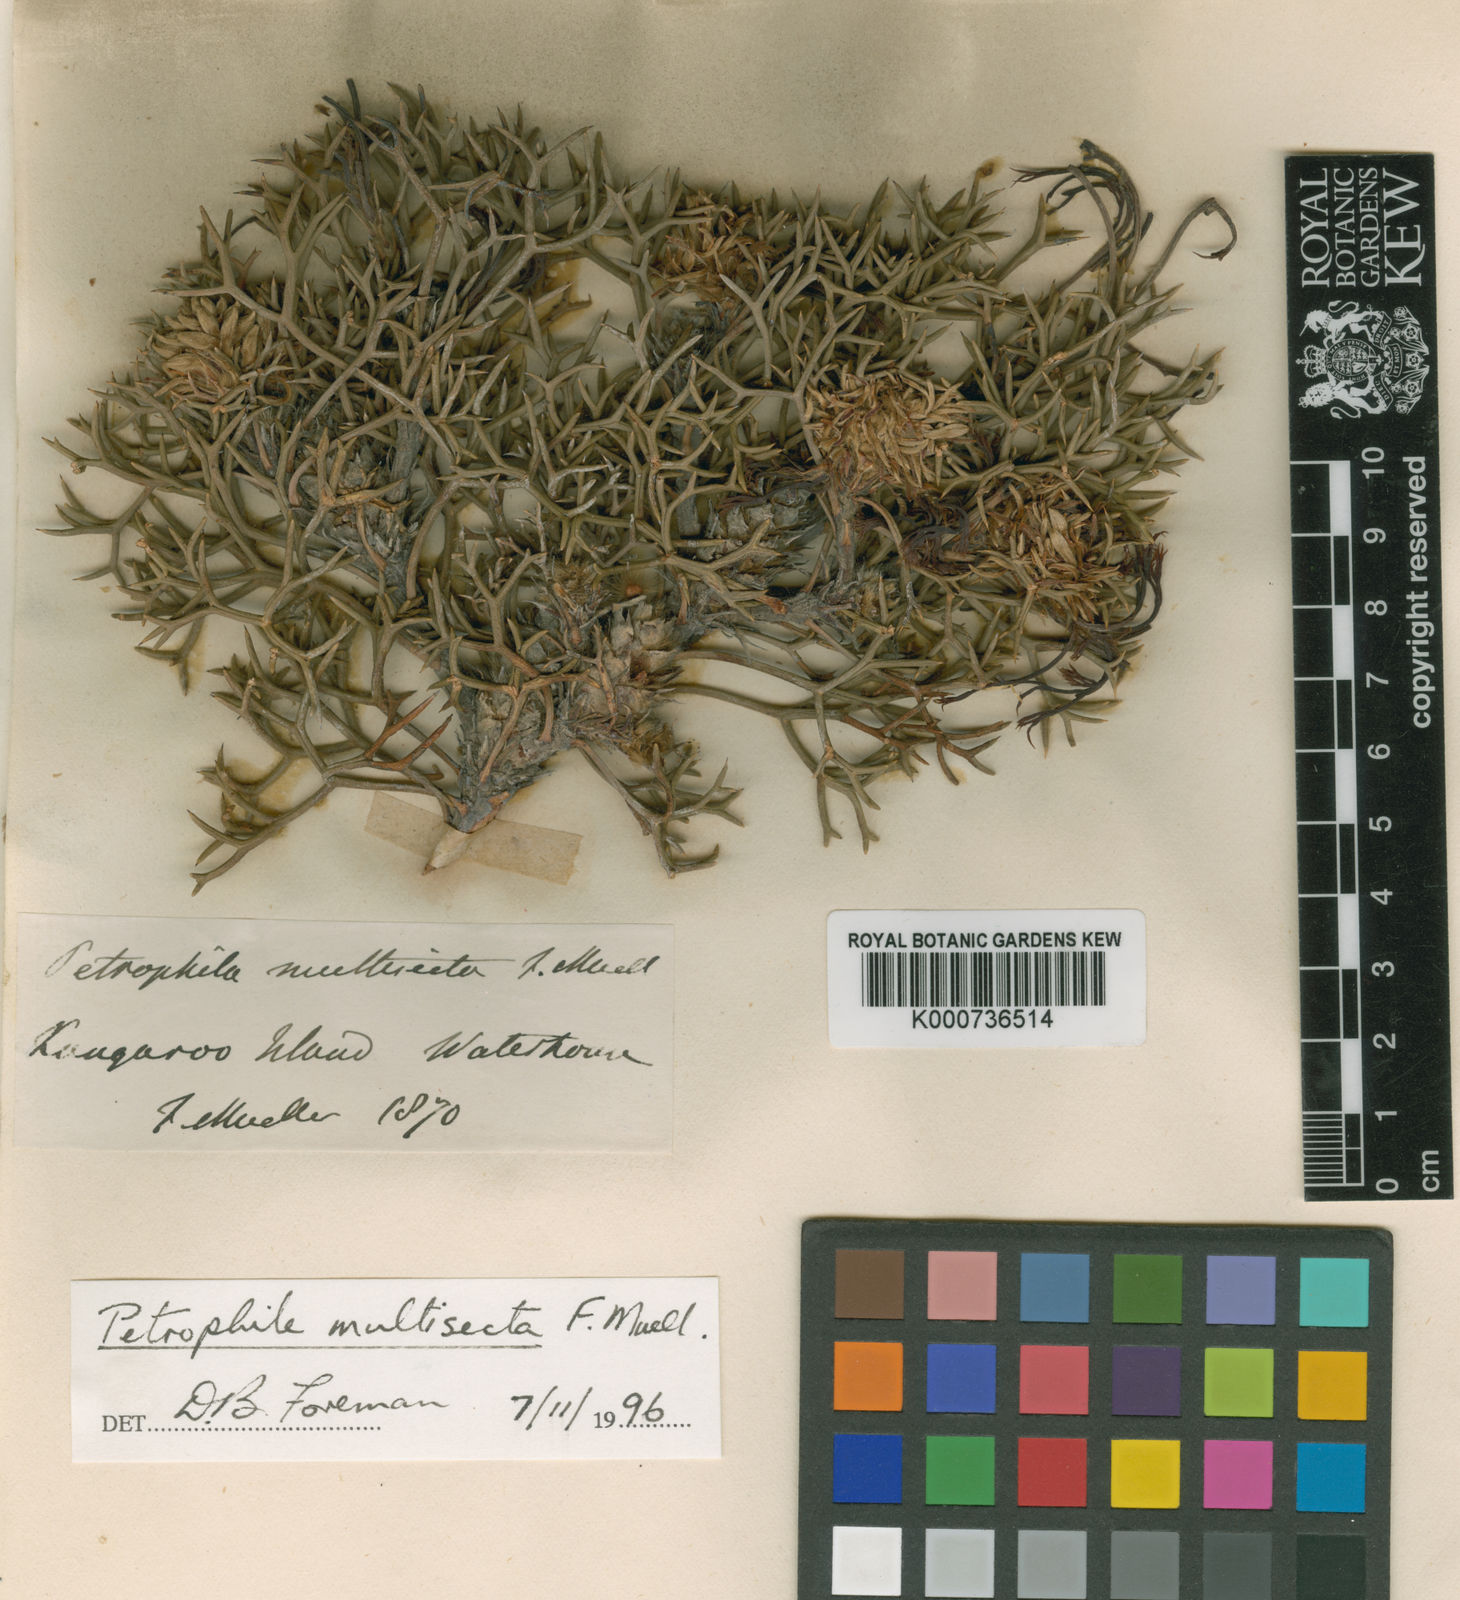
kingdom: Plantae
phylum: Tracheophyta
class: Magnoliopsida
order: Proteales
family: Proteaceae
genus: Petrophile
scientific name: Petrophile multisecta
